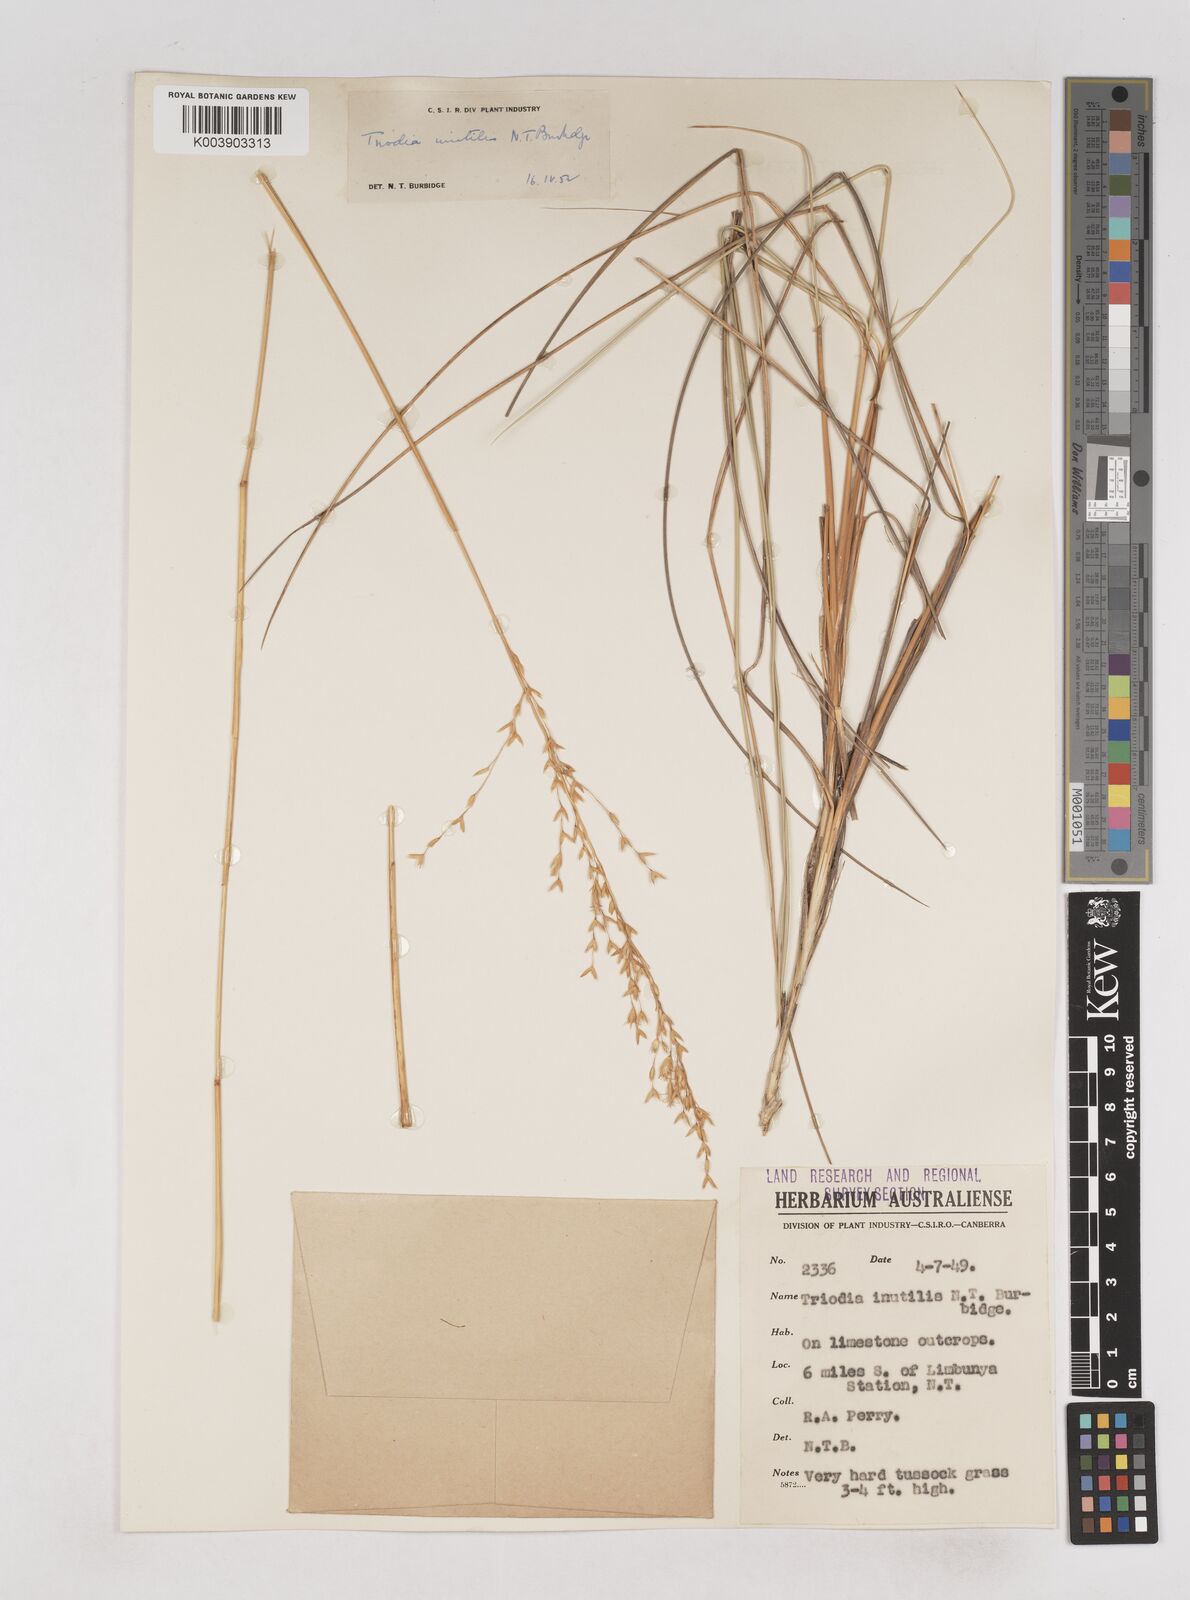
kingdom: Plantae
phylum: Tracheophyta
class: Liliopsida
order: Poales
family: Poaceae
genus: Triodia
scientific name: Triodia inutilis
